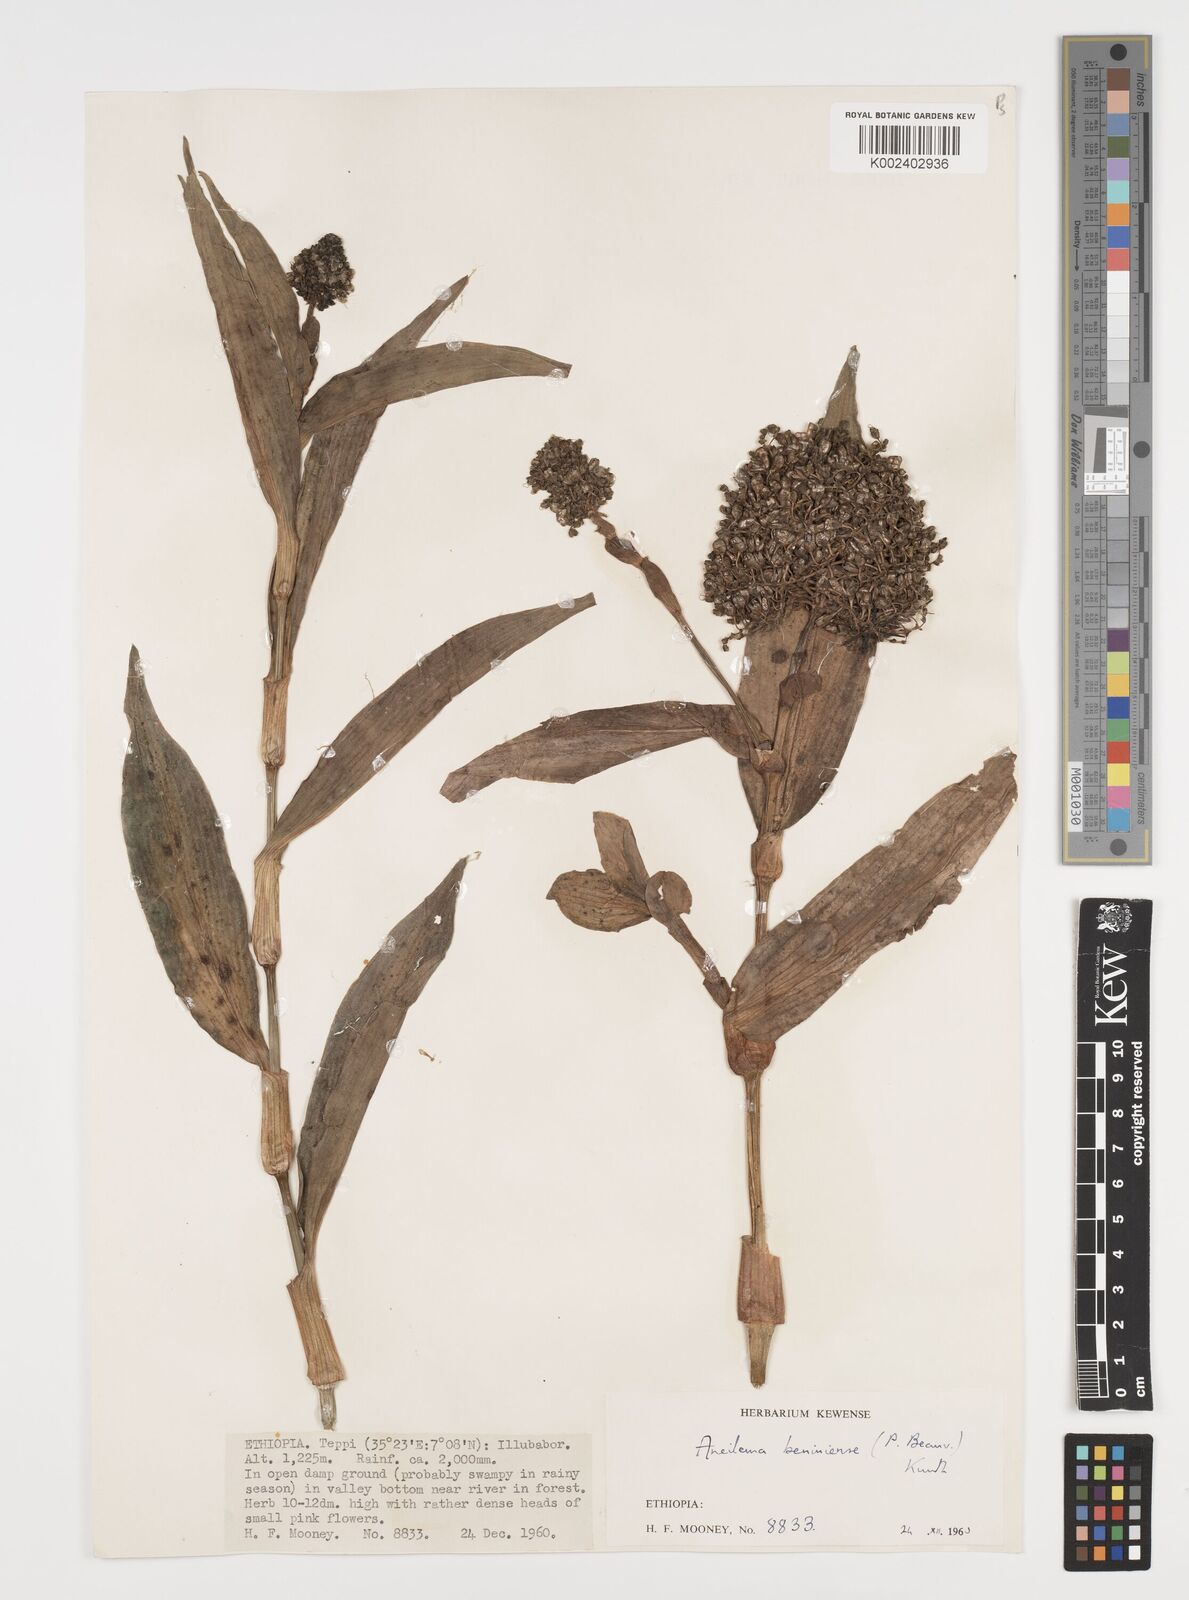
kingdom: Plantae
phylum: Tracheophyta
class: Liliopsida
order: Commelinales
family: Commelinaceae
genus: Aneilema
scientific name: Aneilema beniniense
